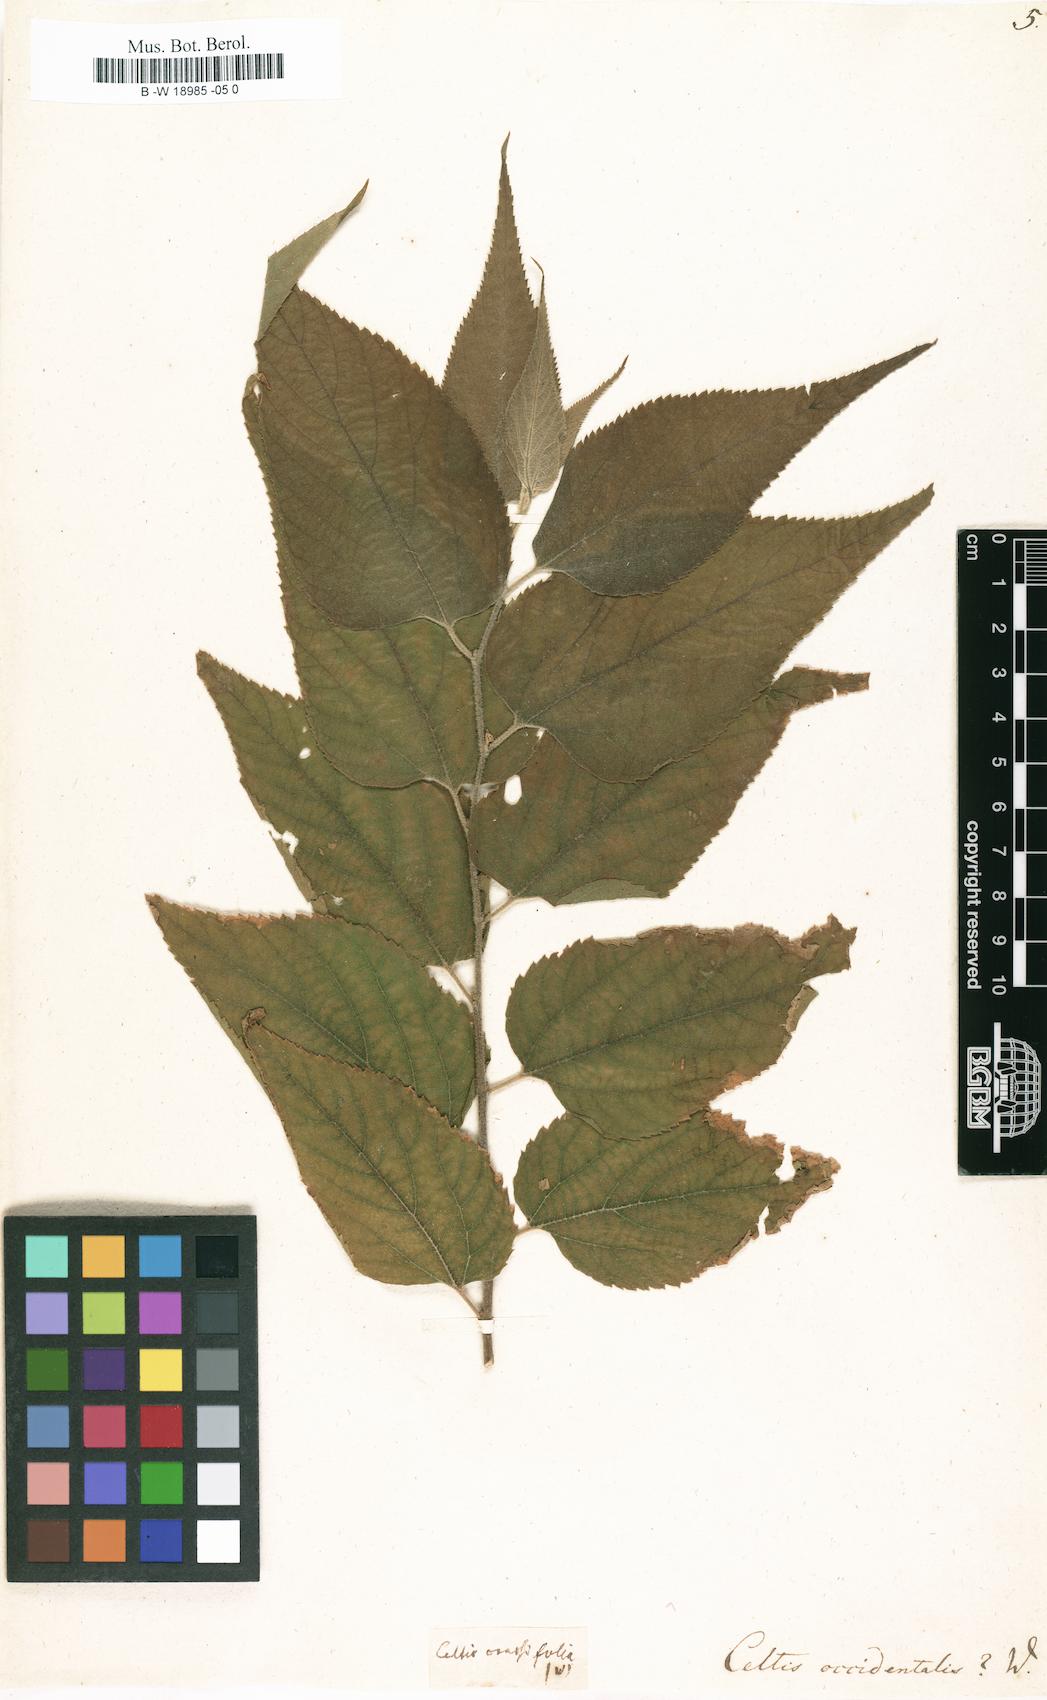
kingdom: Plantae
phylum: Tracheophyta
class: Magnoliopsida
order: Rosales
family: Cannabaceae
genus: Celtis
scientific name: Celtis occidentalis
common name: Common hackberry
